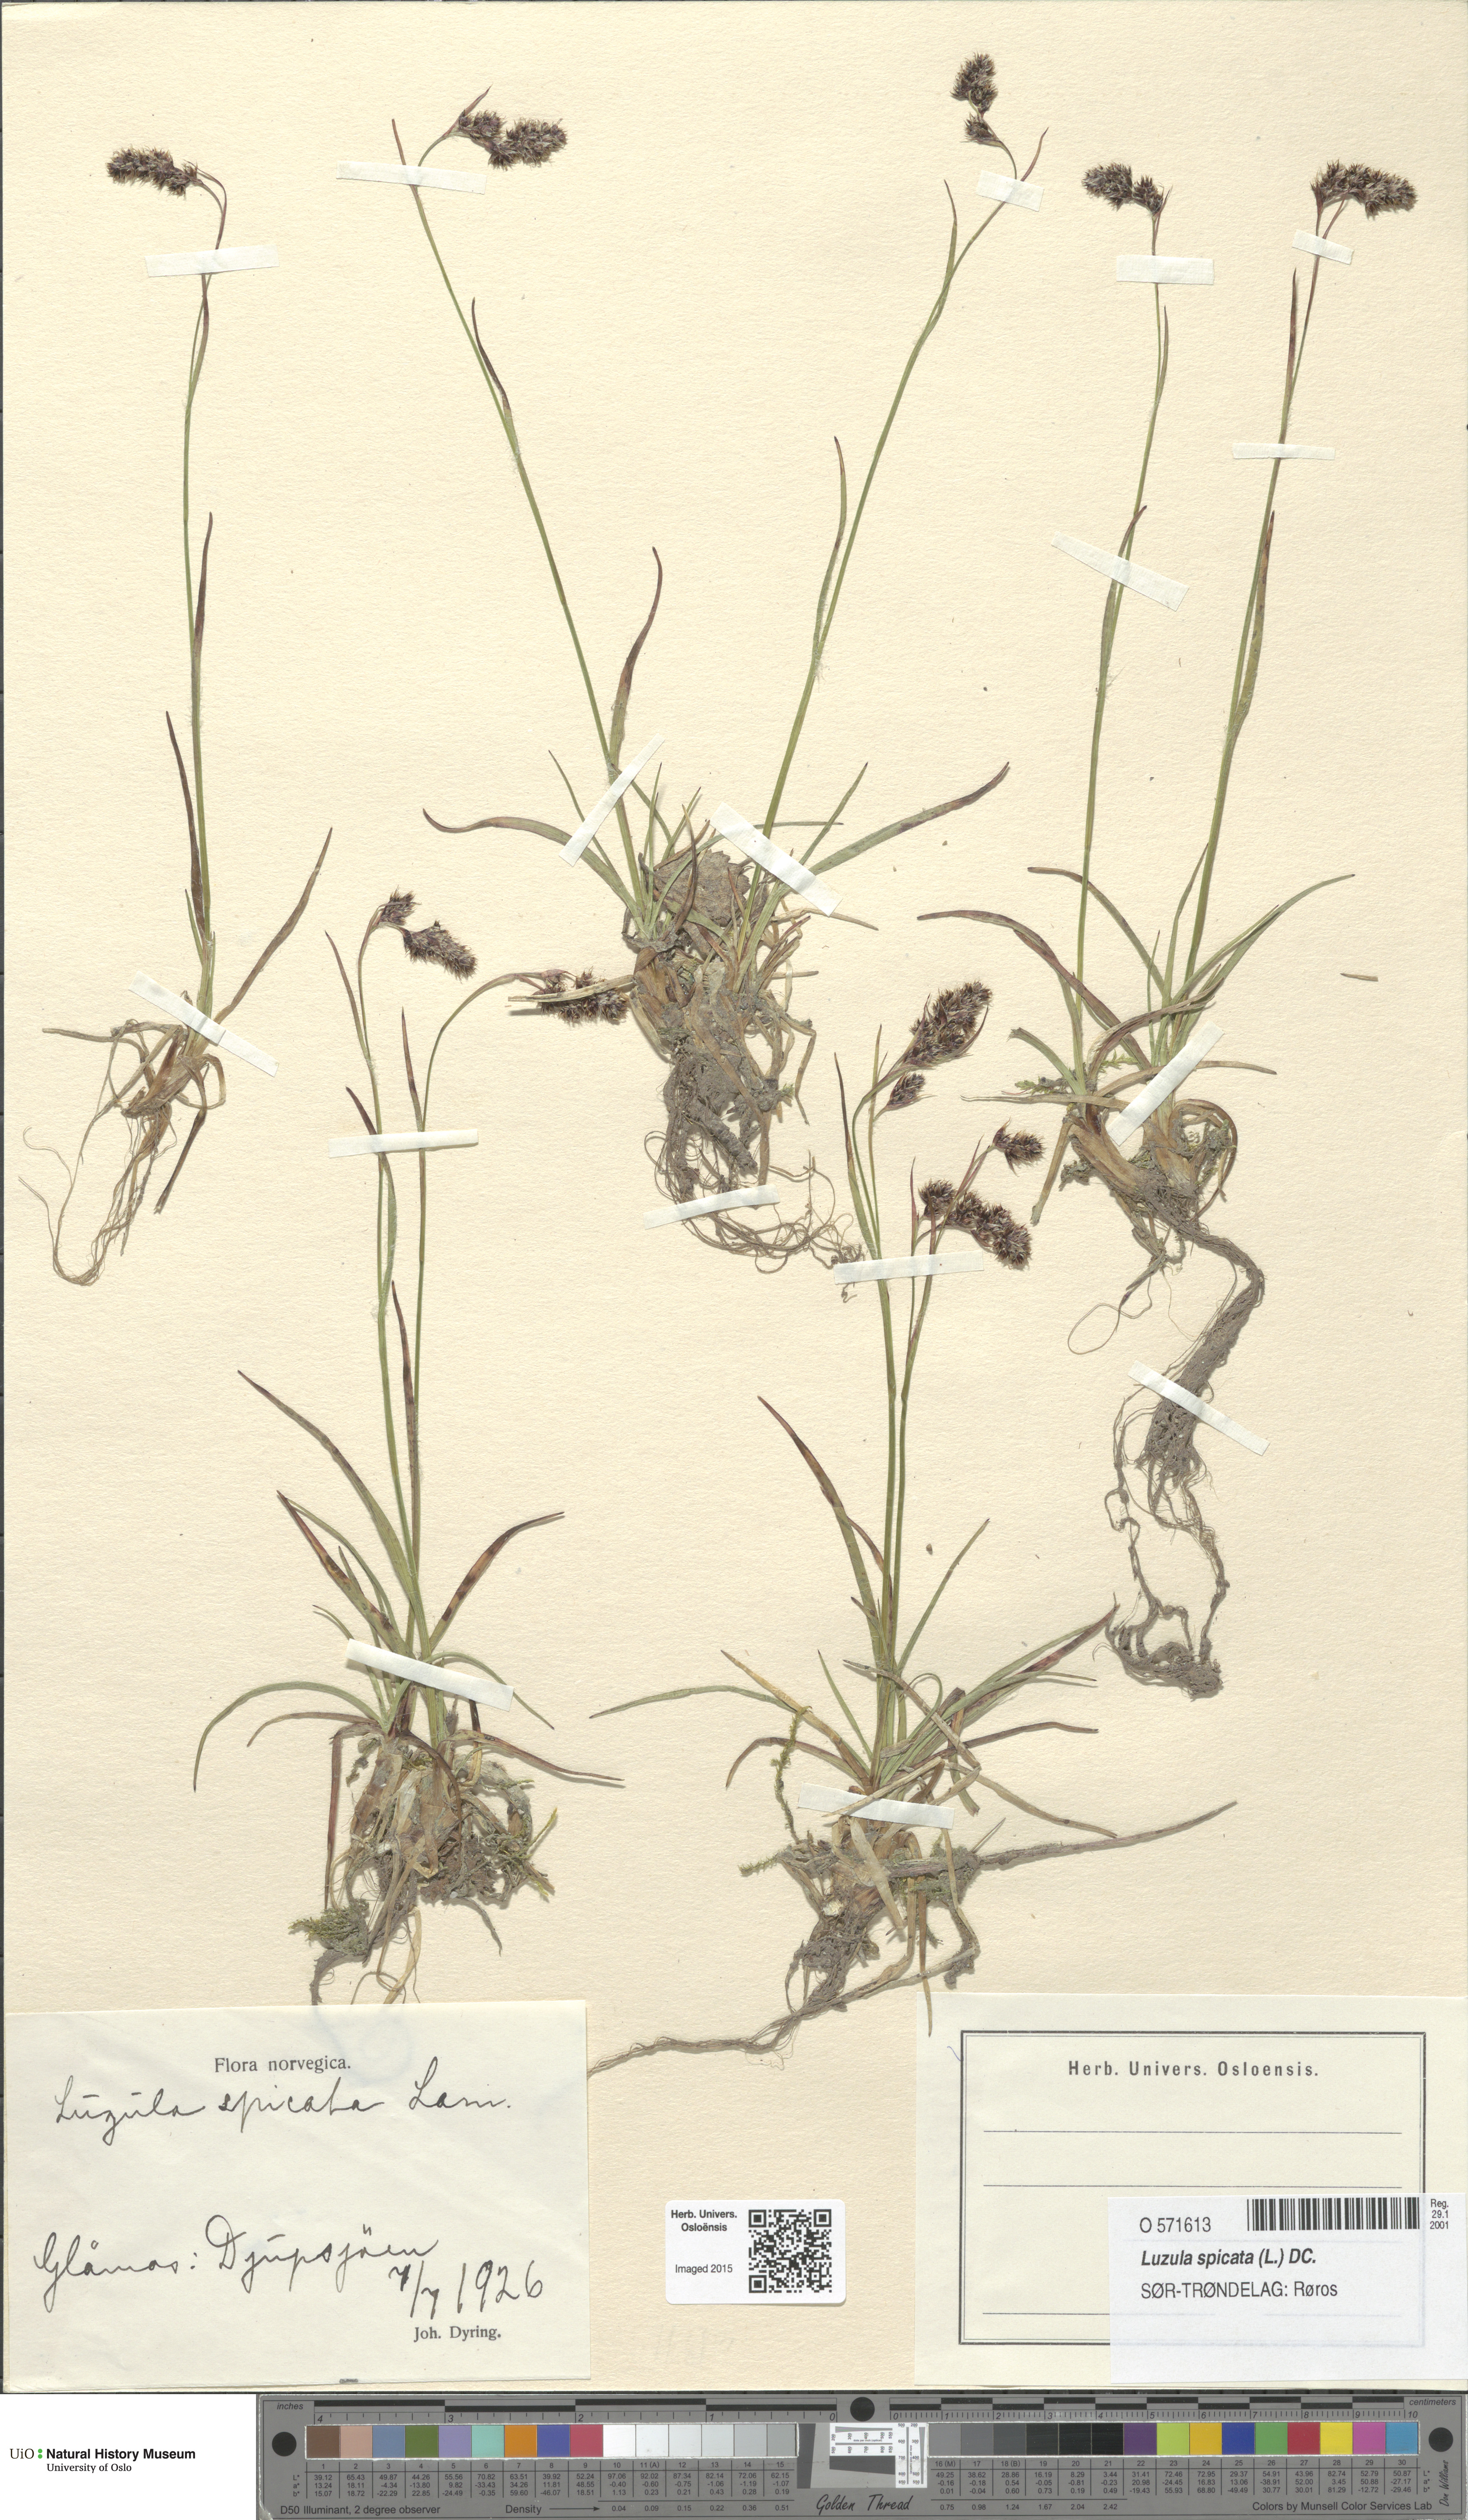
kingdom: Plantae
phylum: Tracheophyta
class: Liliopsida
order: Poales
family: Juncaceae
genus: Luzula
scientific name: Luzula spicata
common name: Spiked wood-rush
